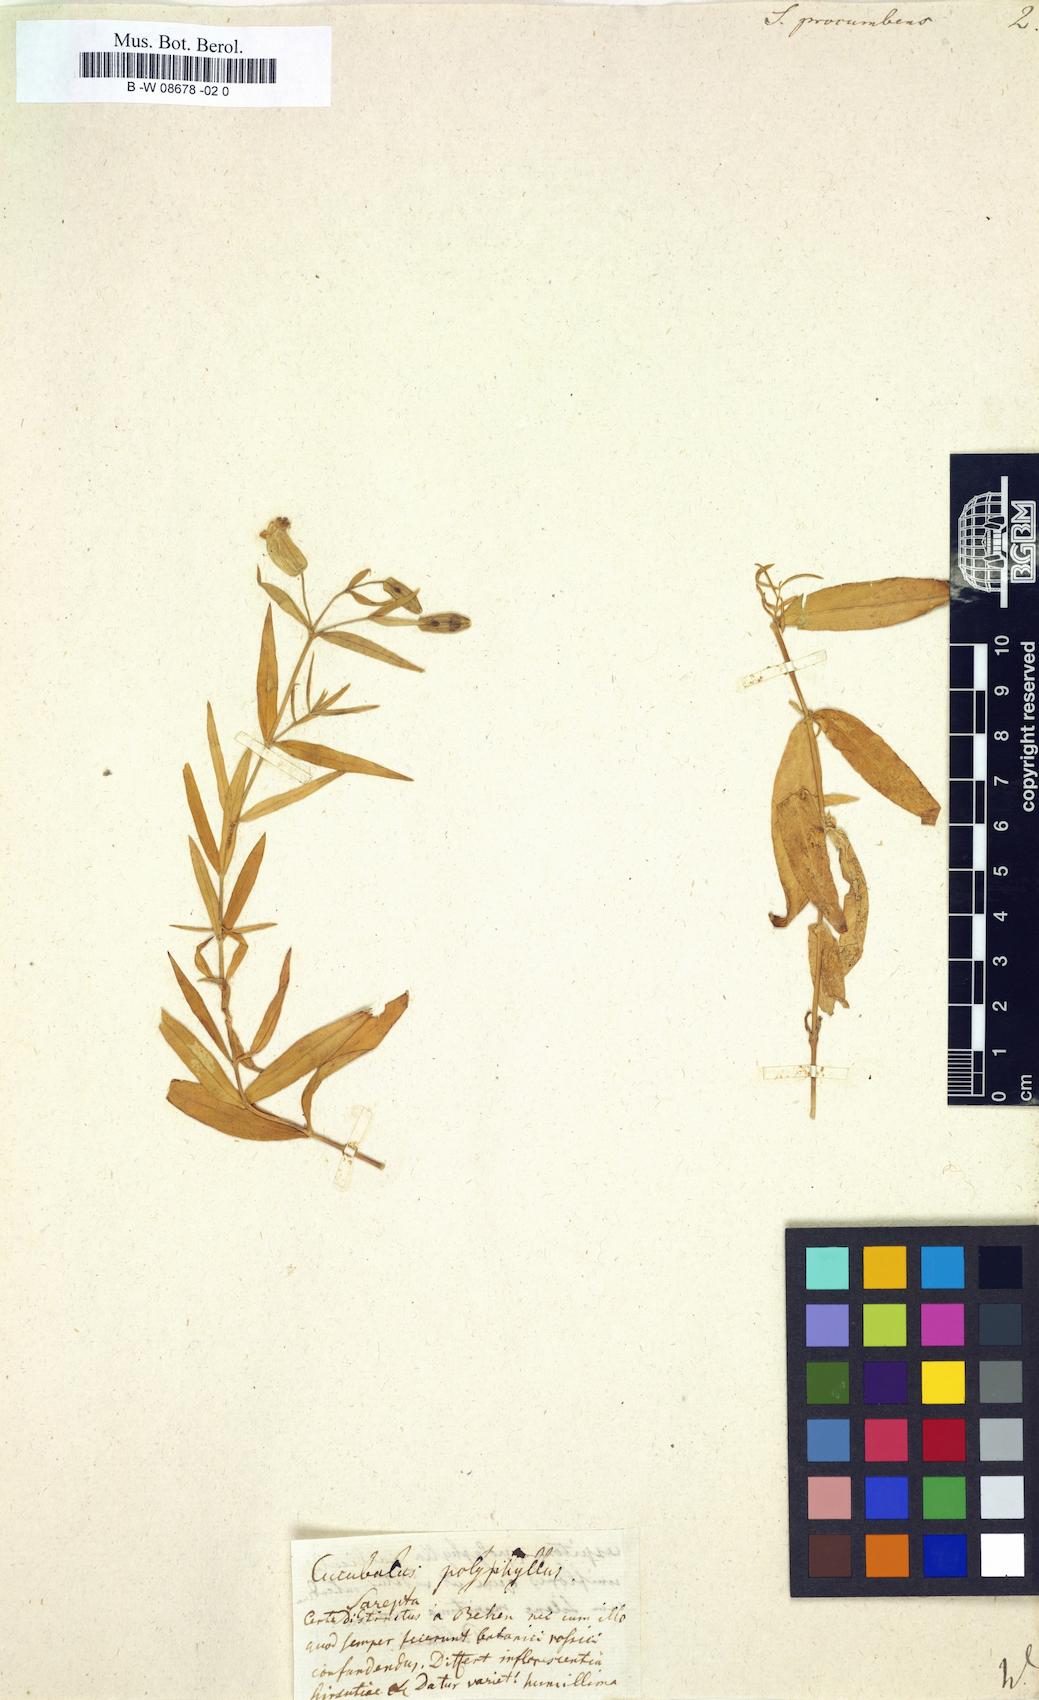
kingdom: Plantae
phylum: Tracheophyta
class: Magnoliopsida
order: Caryophyllales
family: Caryophyllaceae
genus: Silene
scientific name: Silene procumbens
